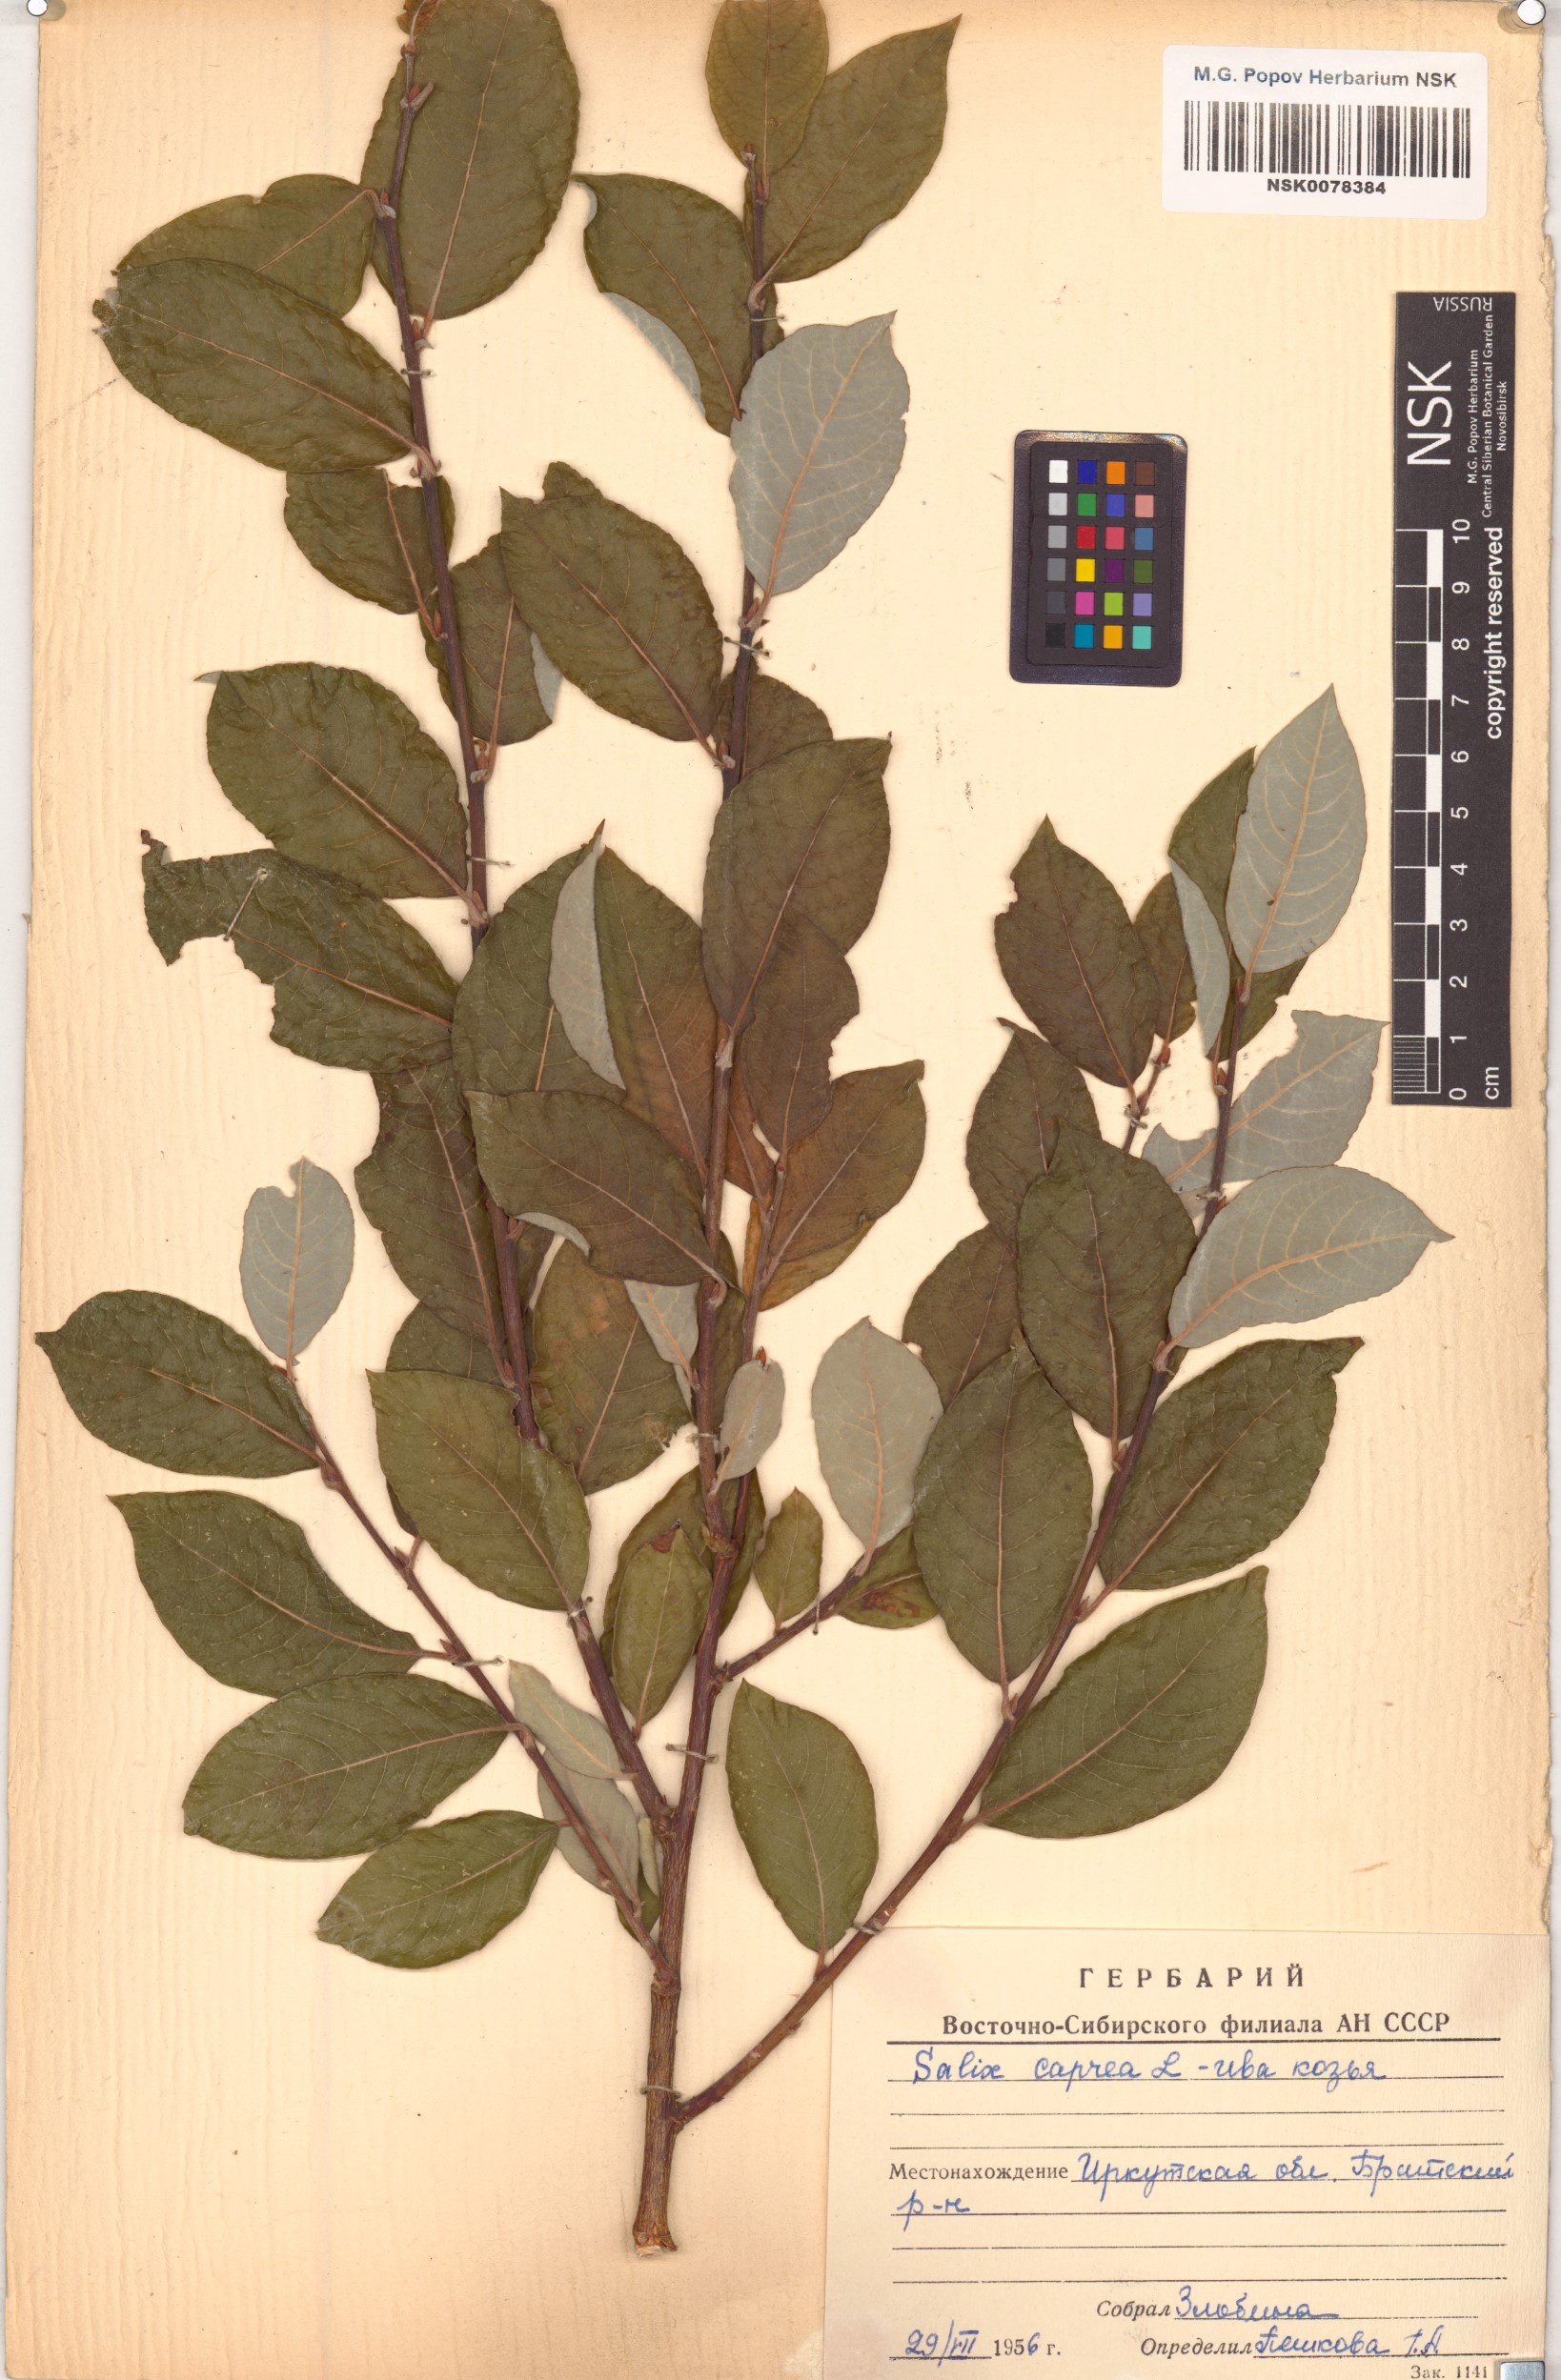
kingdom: Plantae
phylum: Tracheophyta
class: Magnoliopsida
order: Malpighiales
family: Salicaceae
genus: Salix
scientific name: Salix caprea
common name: Goat willow
